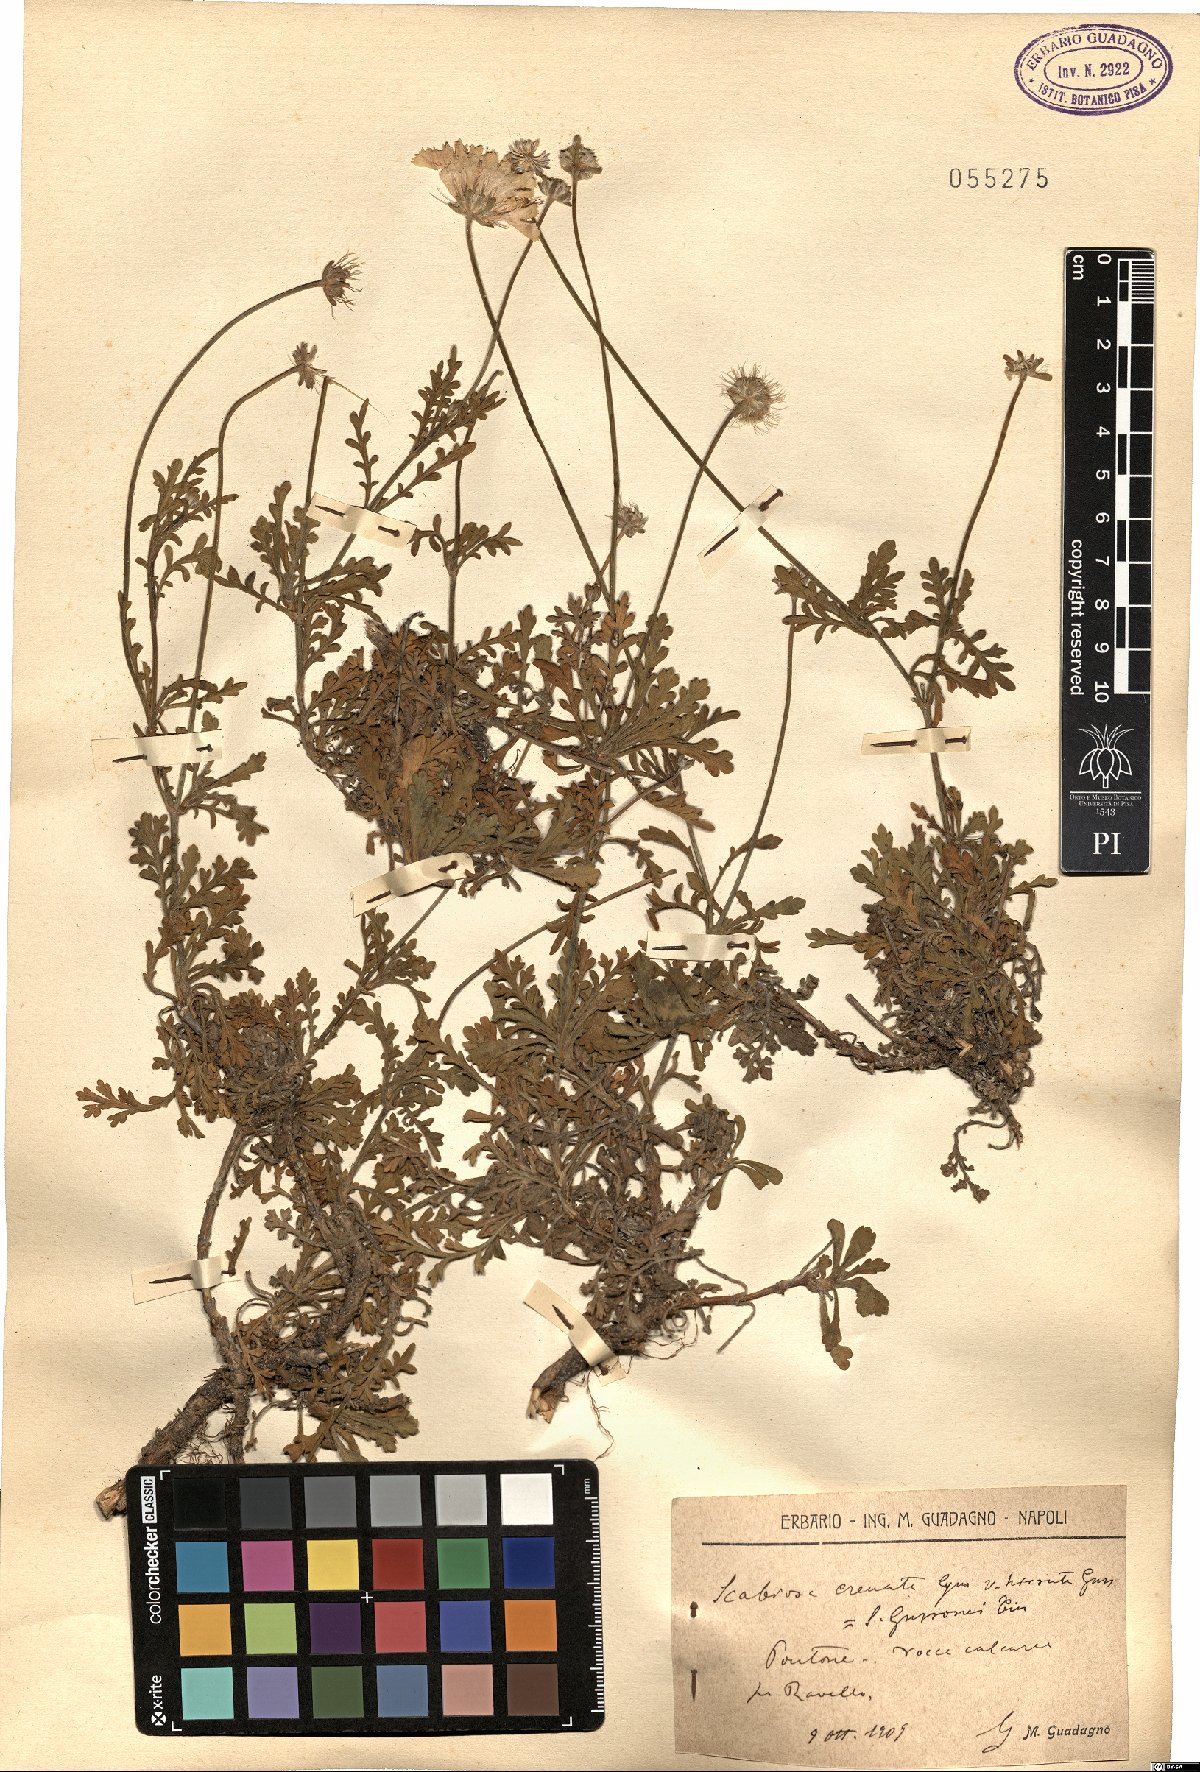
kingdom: Plantae
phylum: Tracheophyta
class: Magnoliopsida
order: Dipsacales
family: Caprifoliaceae
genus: Lomelosia
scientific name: Lomelosia crenata
